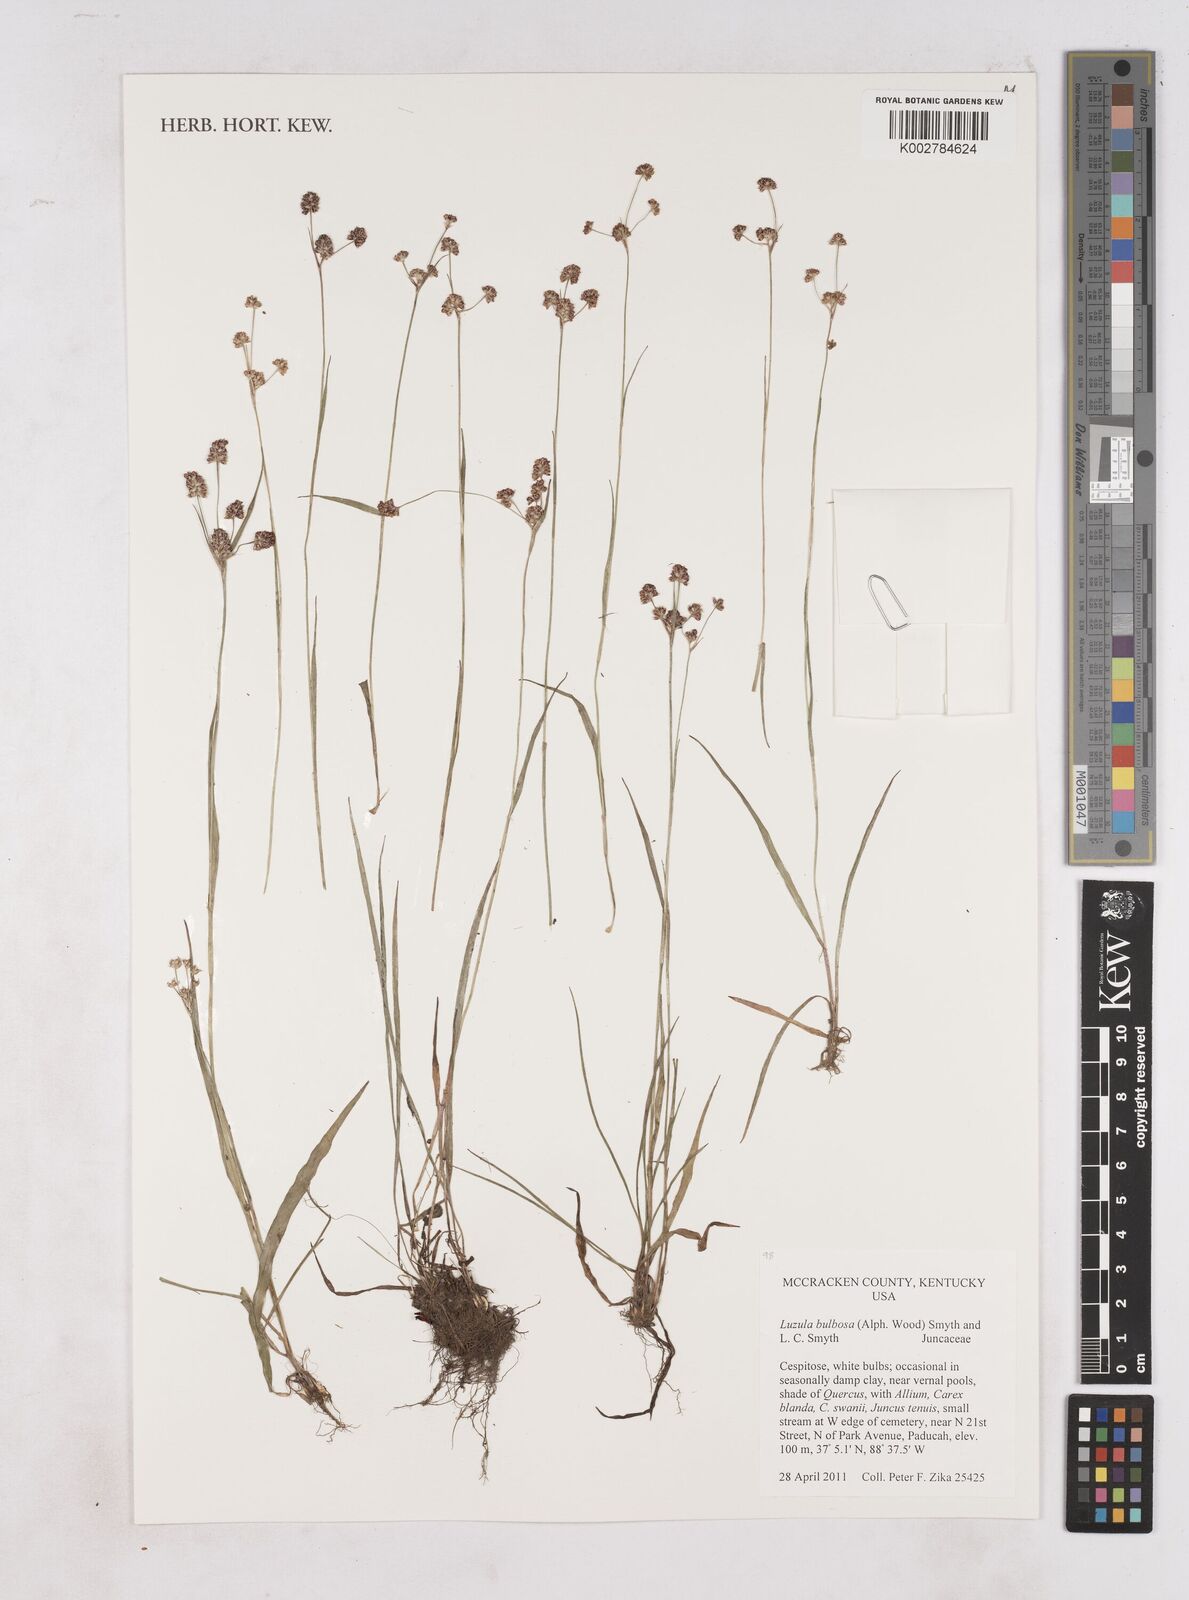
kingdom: Plantae
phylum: Tracheophyta
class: Liliopsida
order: Poales
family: Juncaceae
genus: Luzula
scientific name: Luzula bulbosa
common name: Bulbous woodrush
